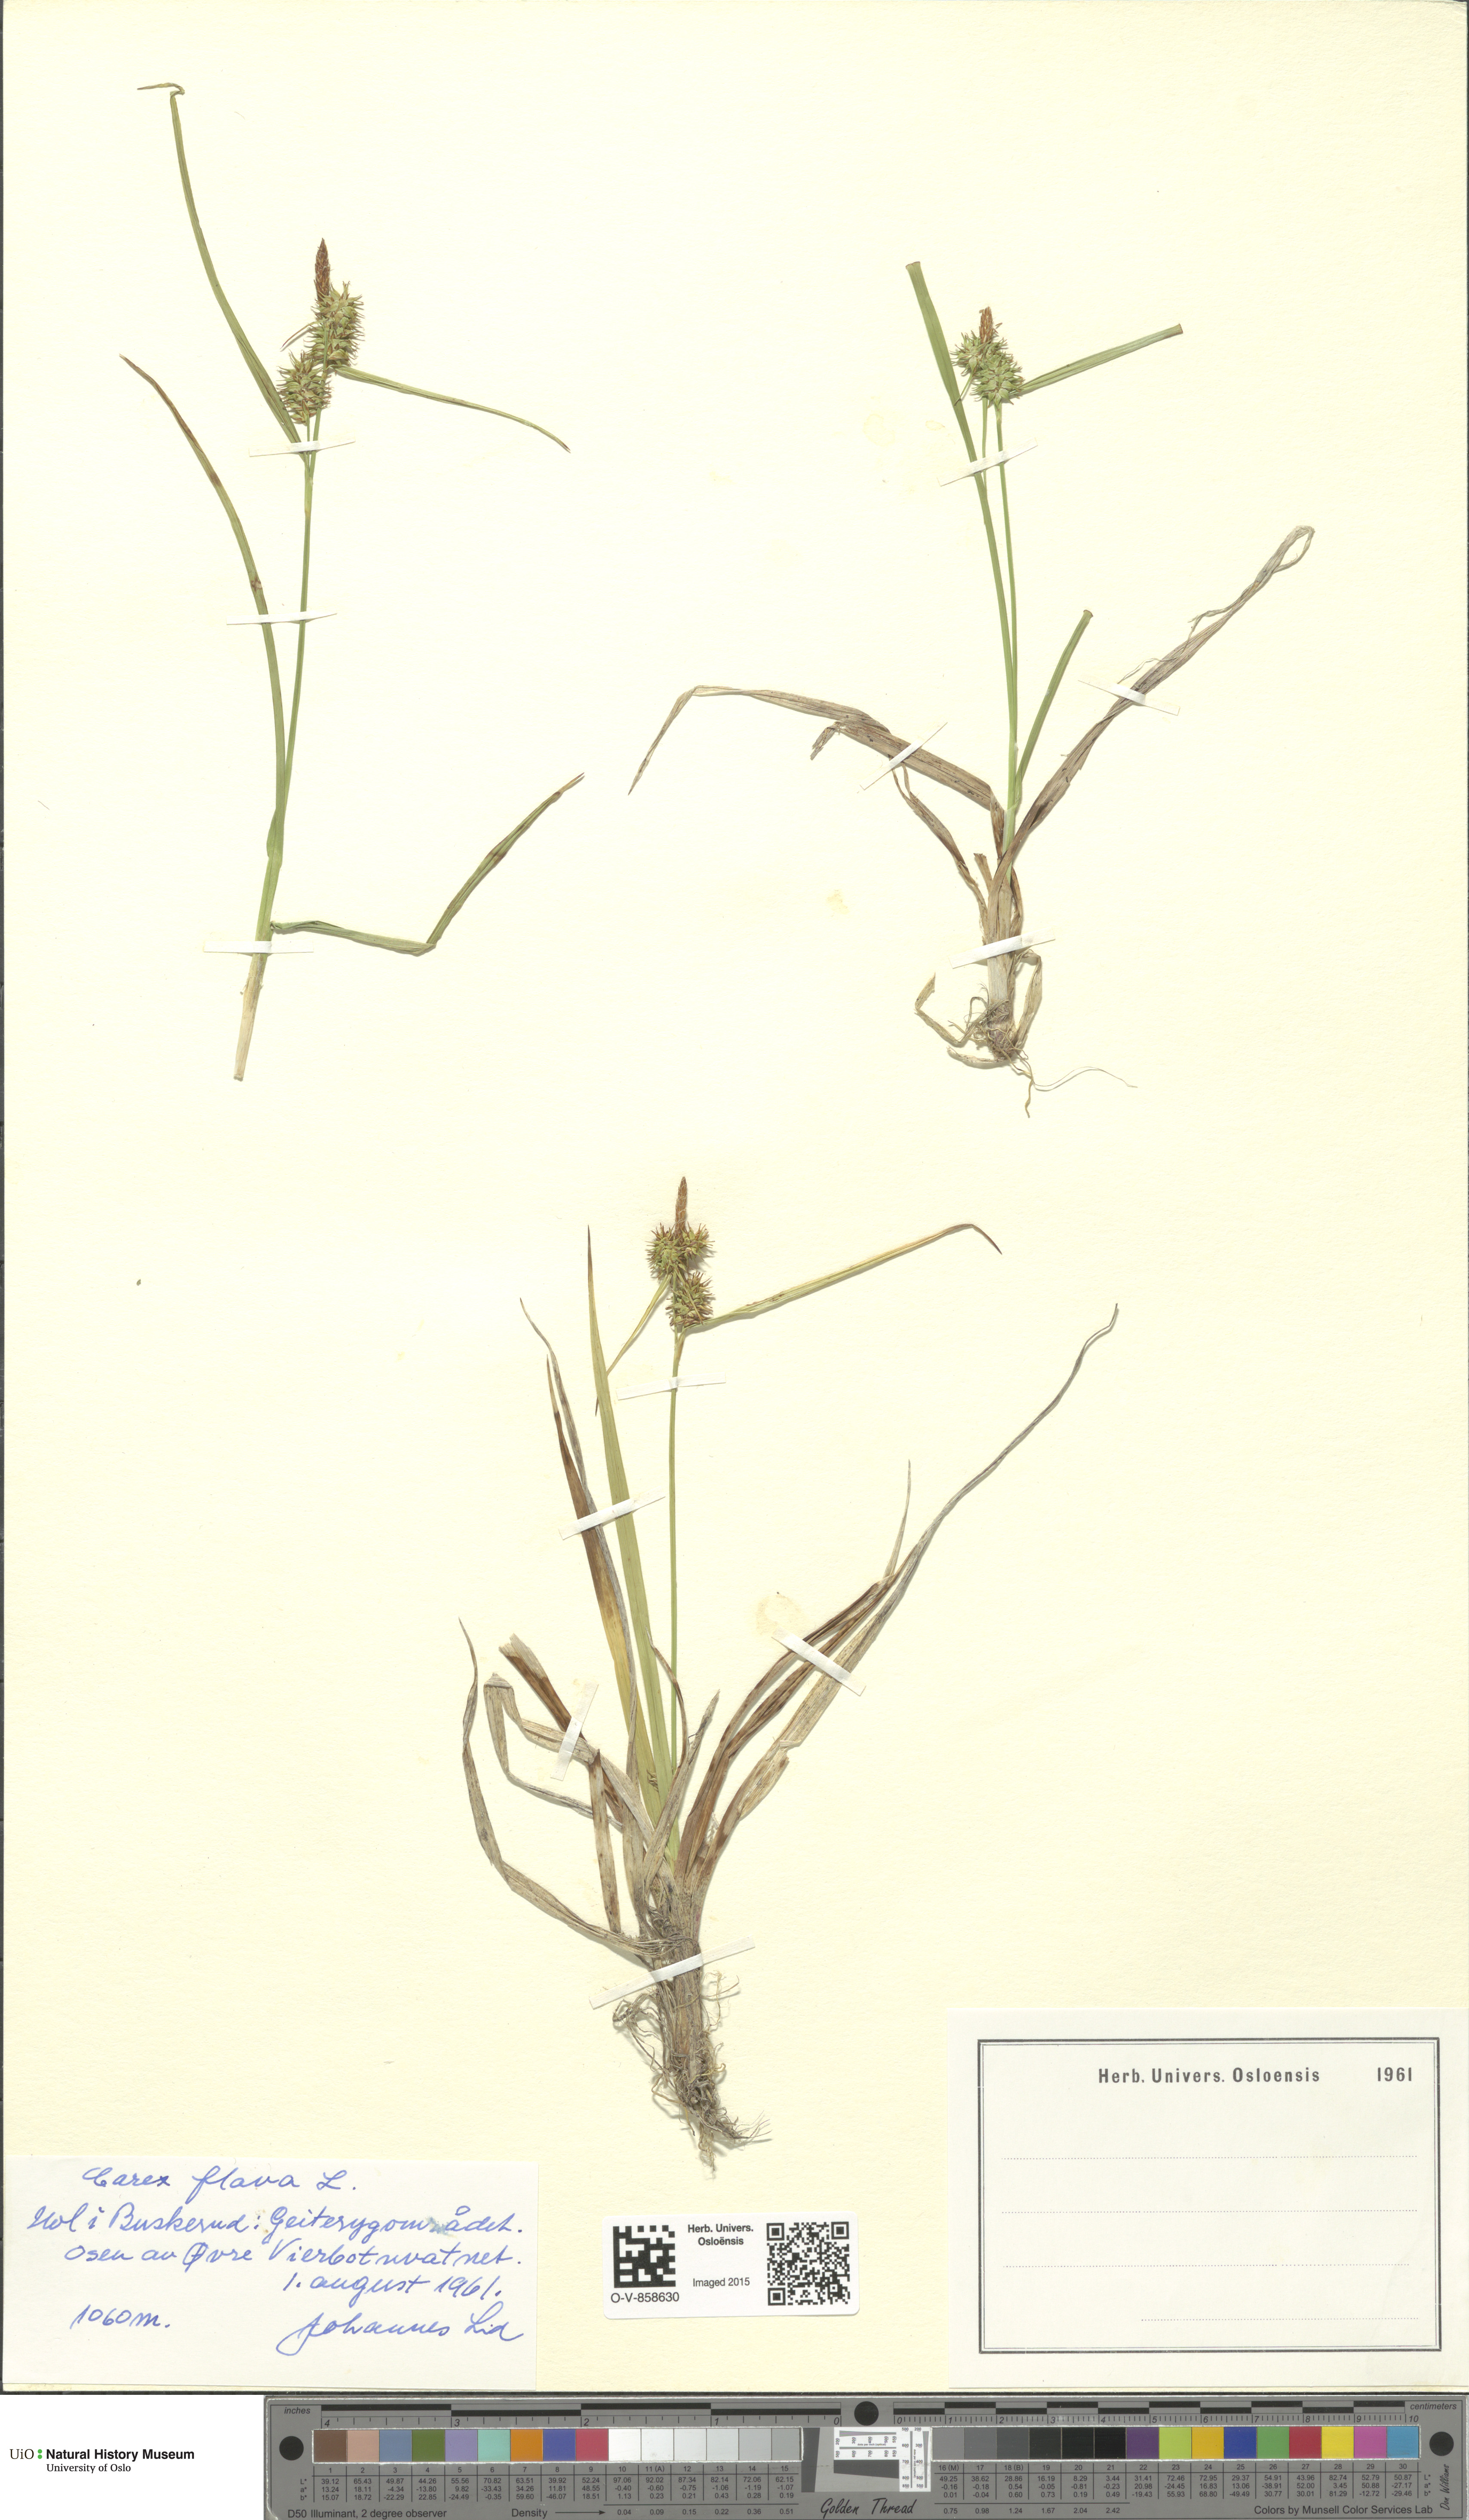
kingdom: Plantae
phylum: Tracheophyta
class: Liliopsida
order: Poales
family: Cyperaceae
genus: Carex
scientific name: Carex flava
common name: Large yellow-sedge
